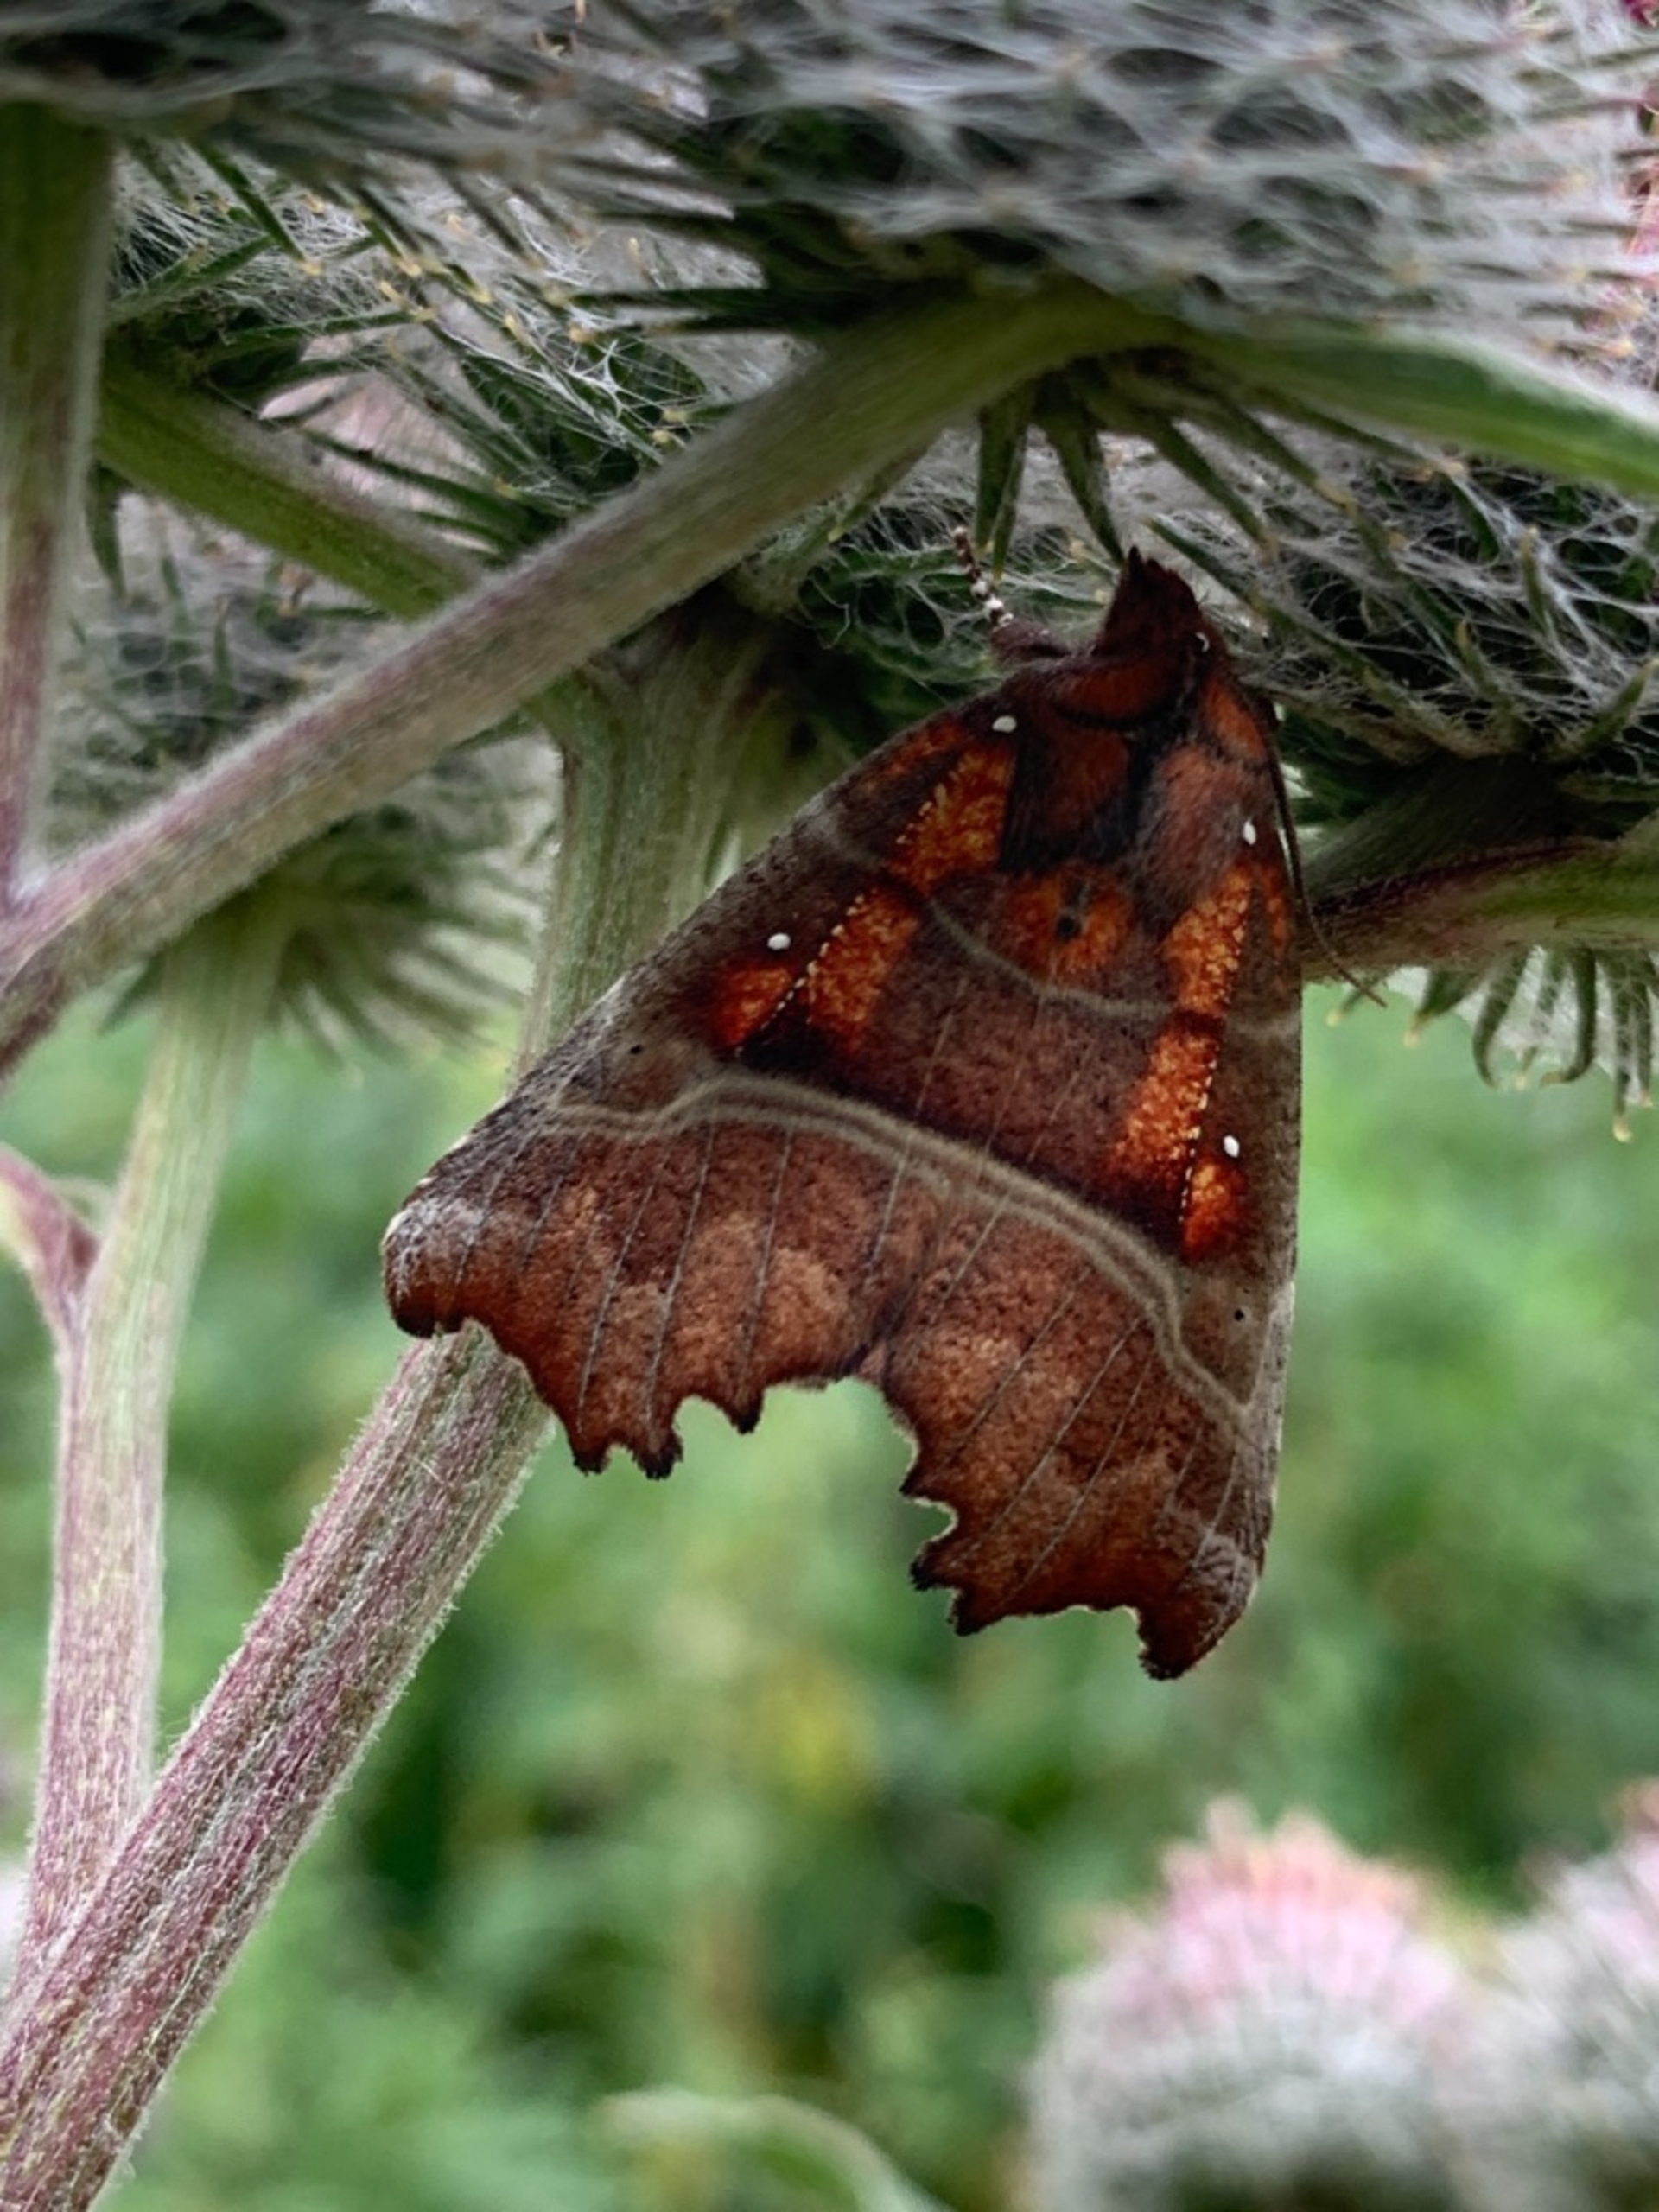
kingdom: Animalia
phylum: Arthropoda
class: Insecta
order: Lepidoptera
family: Erebidae
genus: Scoliopteryx
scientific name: Scoliopteryx libatrix
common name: Husmoderugle
